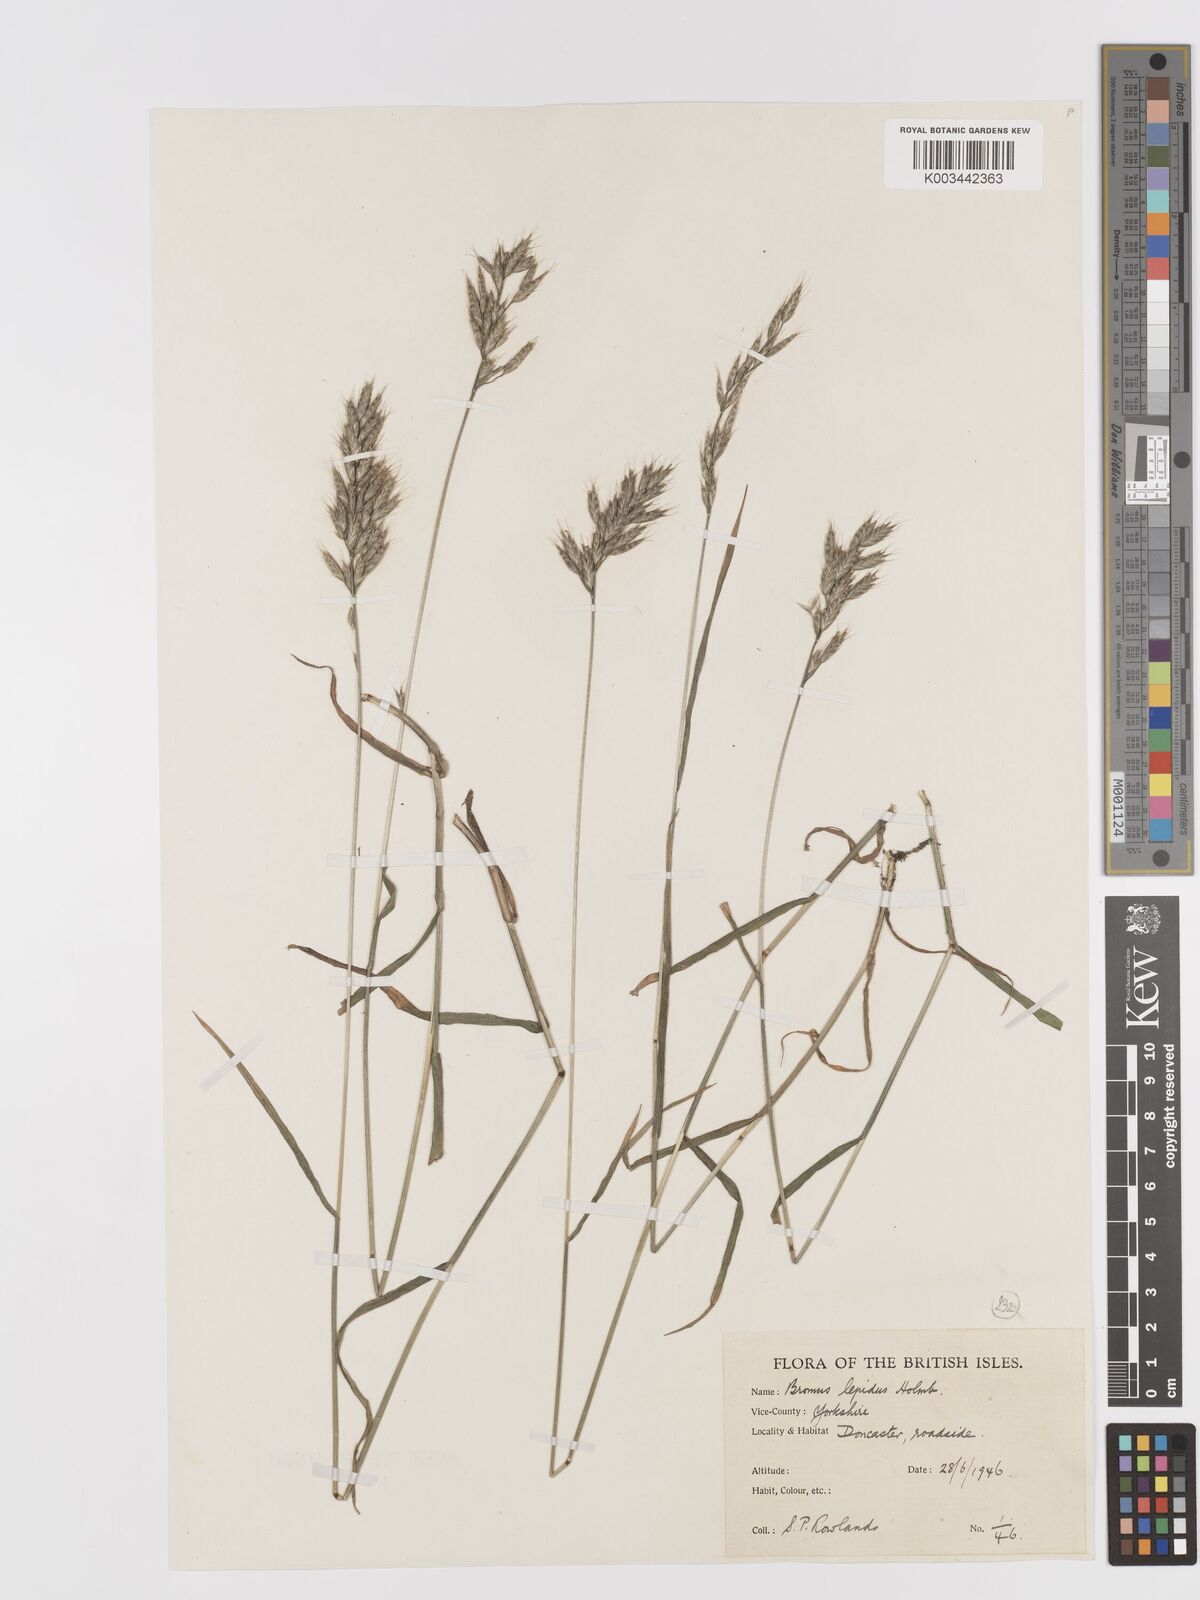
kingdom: Plantae
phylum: Tracheophyta
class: Liliopsida
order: Poales
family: Poaceae
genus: Bromus
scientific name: Bromus lepidus
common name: Slender soft-brome
